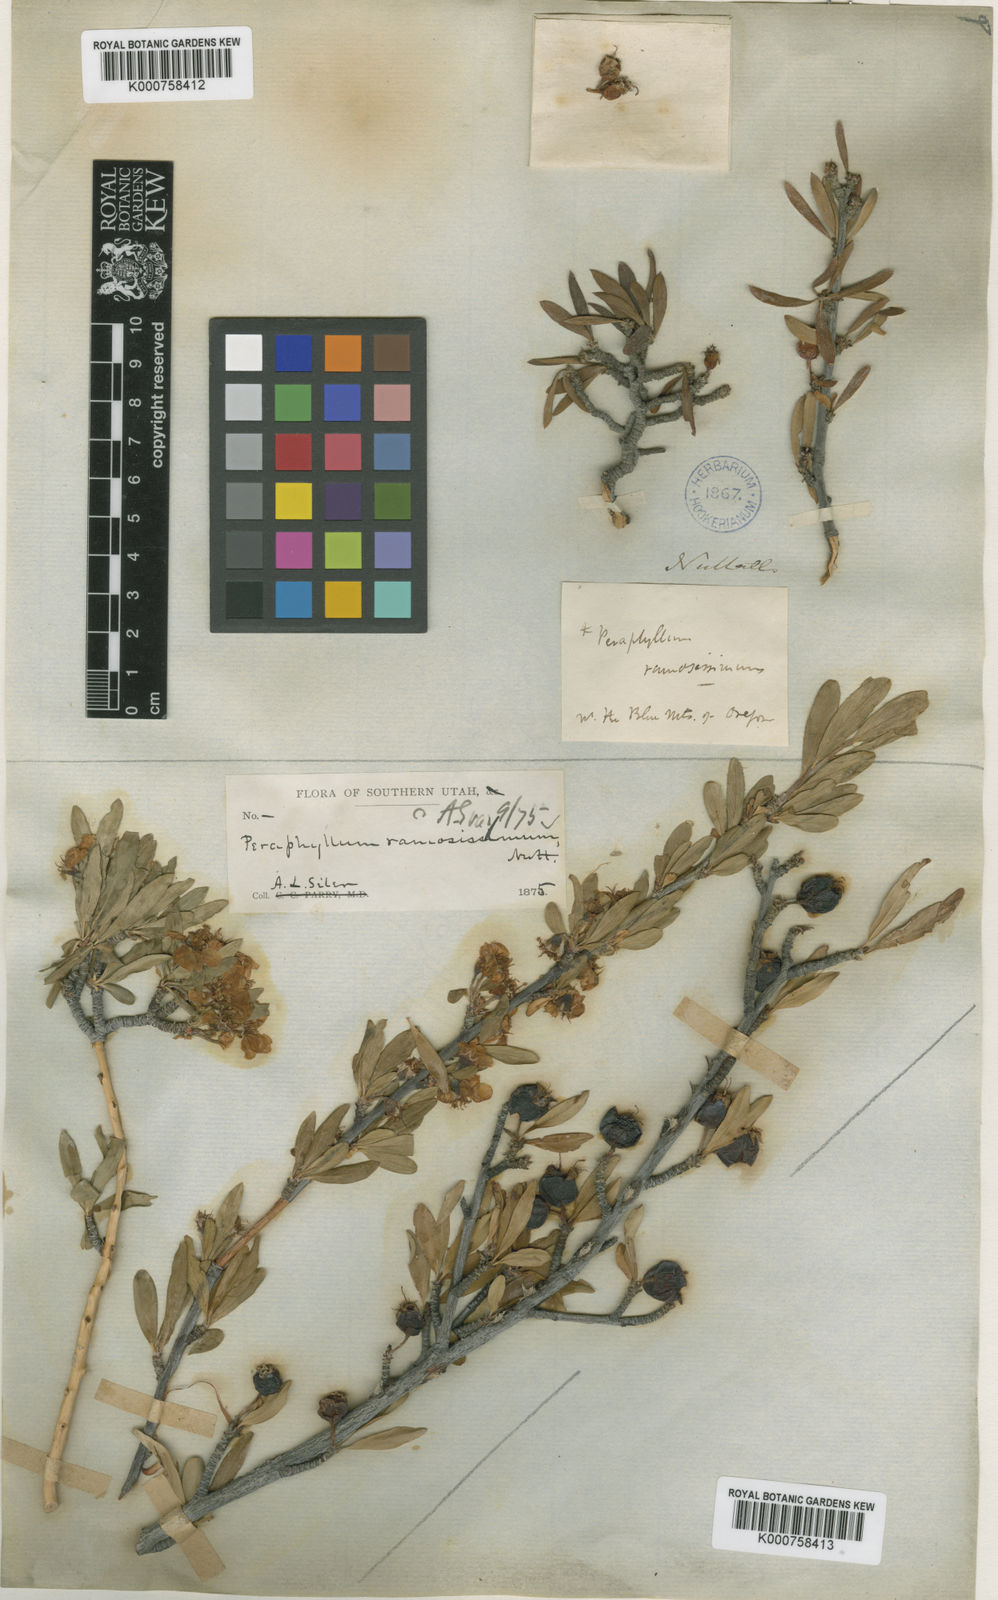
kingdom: Plantae
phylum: Tracheophyta
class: Magnoliopsida
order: Rosales
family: Rosaceae
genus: Amelanchier
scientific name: Amelanchier ramosissima
